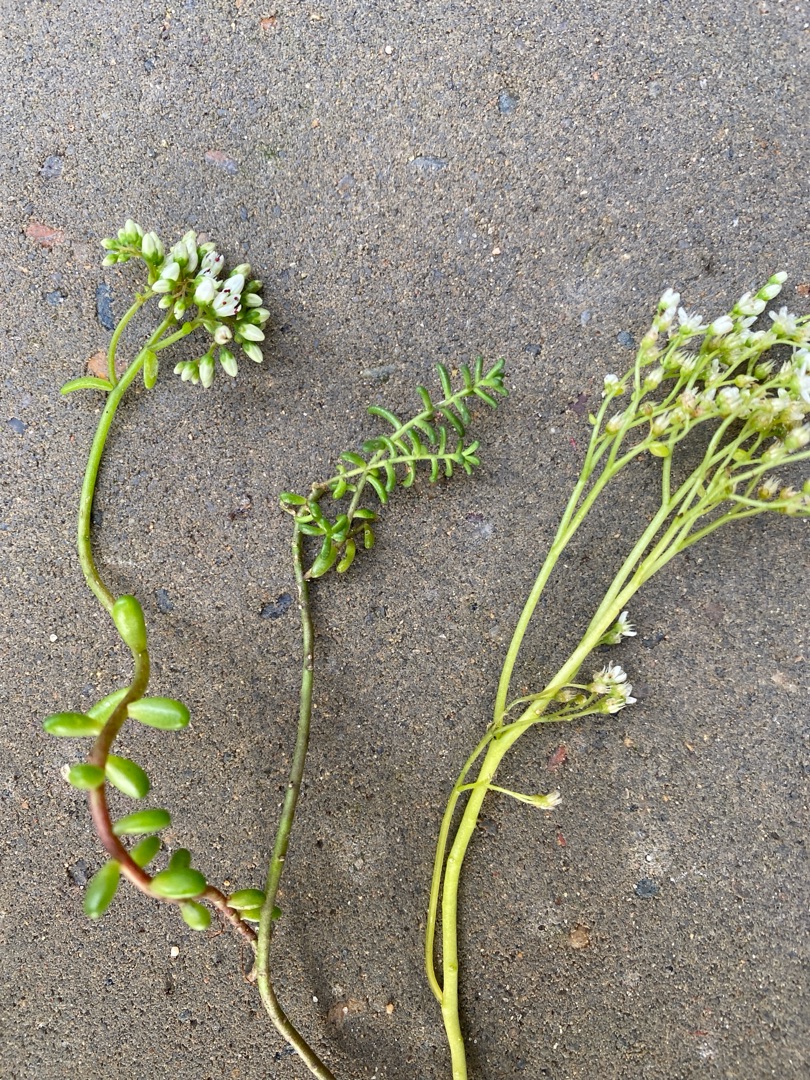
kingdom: Plantae
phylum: Tracheophyta
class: Magnoliopsida
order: Saxifragales
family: Crassulaceae
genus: Sedum
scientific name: Sedum album
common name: Hvid stenurt
